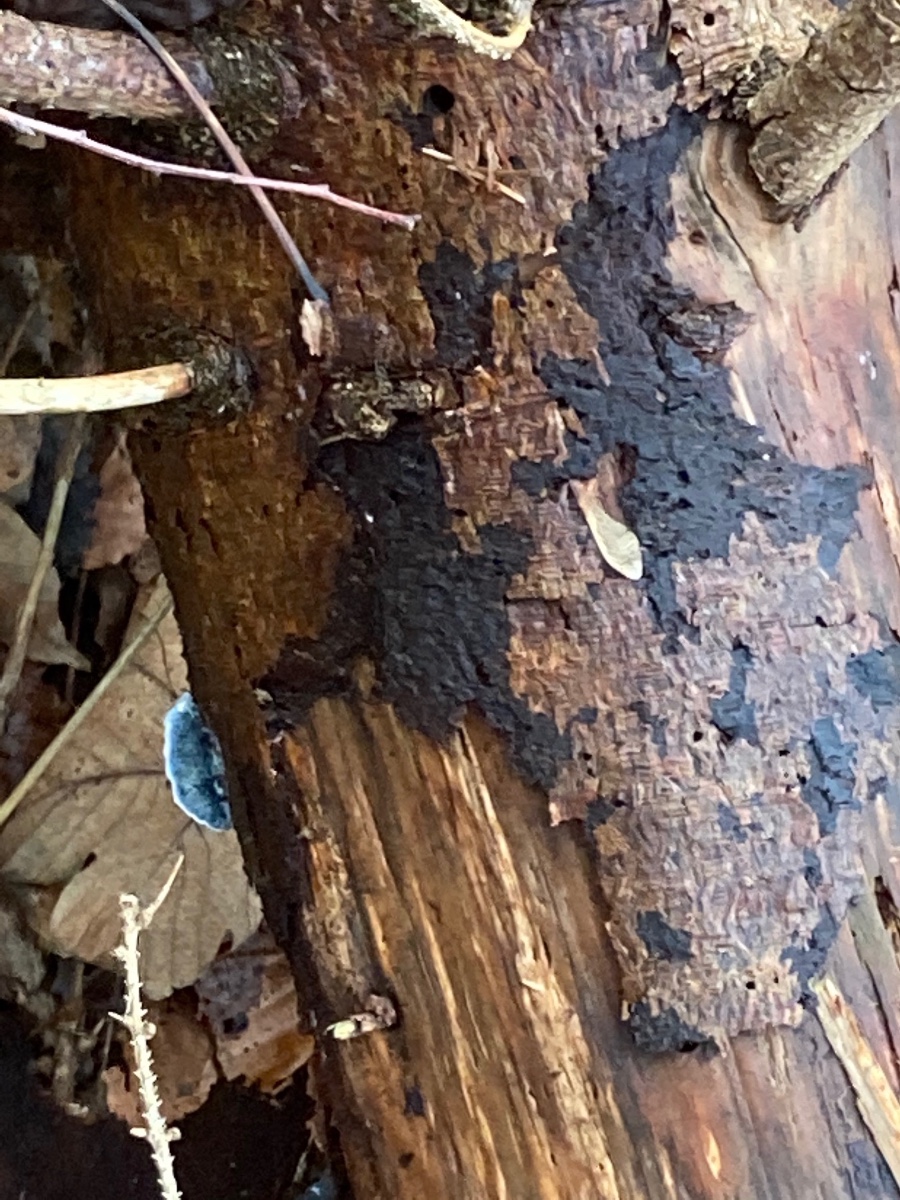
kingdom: Fungi
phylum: Basidiomycota
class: Agaricomycetes
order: Polyporales
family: Polyporaceae
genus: Cyanosporus
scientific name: Cyanosporus caesius
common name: blålig kødporesvamp
